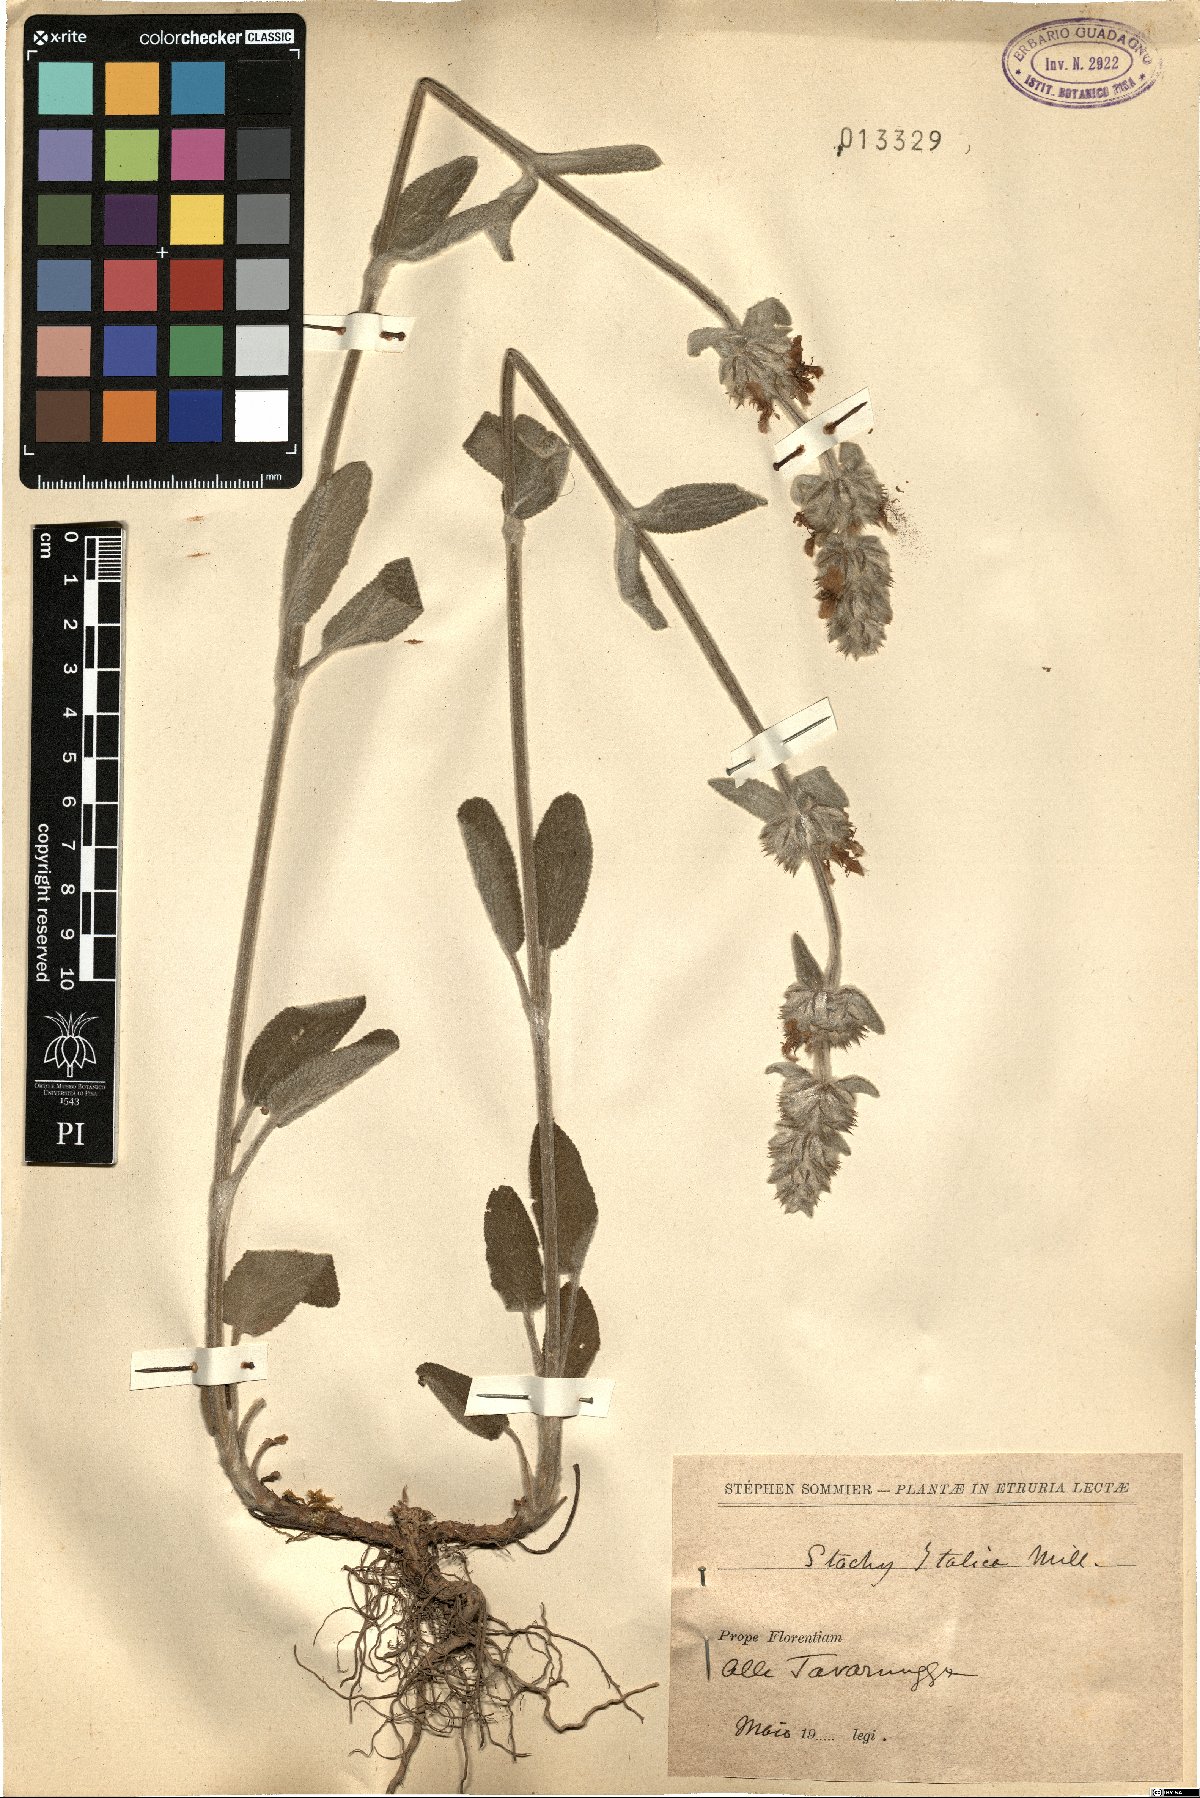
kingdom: Plantae
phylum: Tracheophyta
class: Magnoliopsida
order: Lamiales
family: Lamiaceae
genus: Sideritis
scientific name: Sideritis italica
